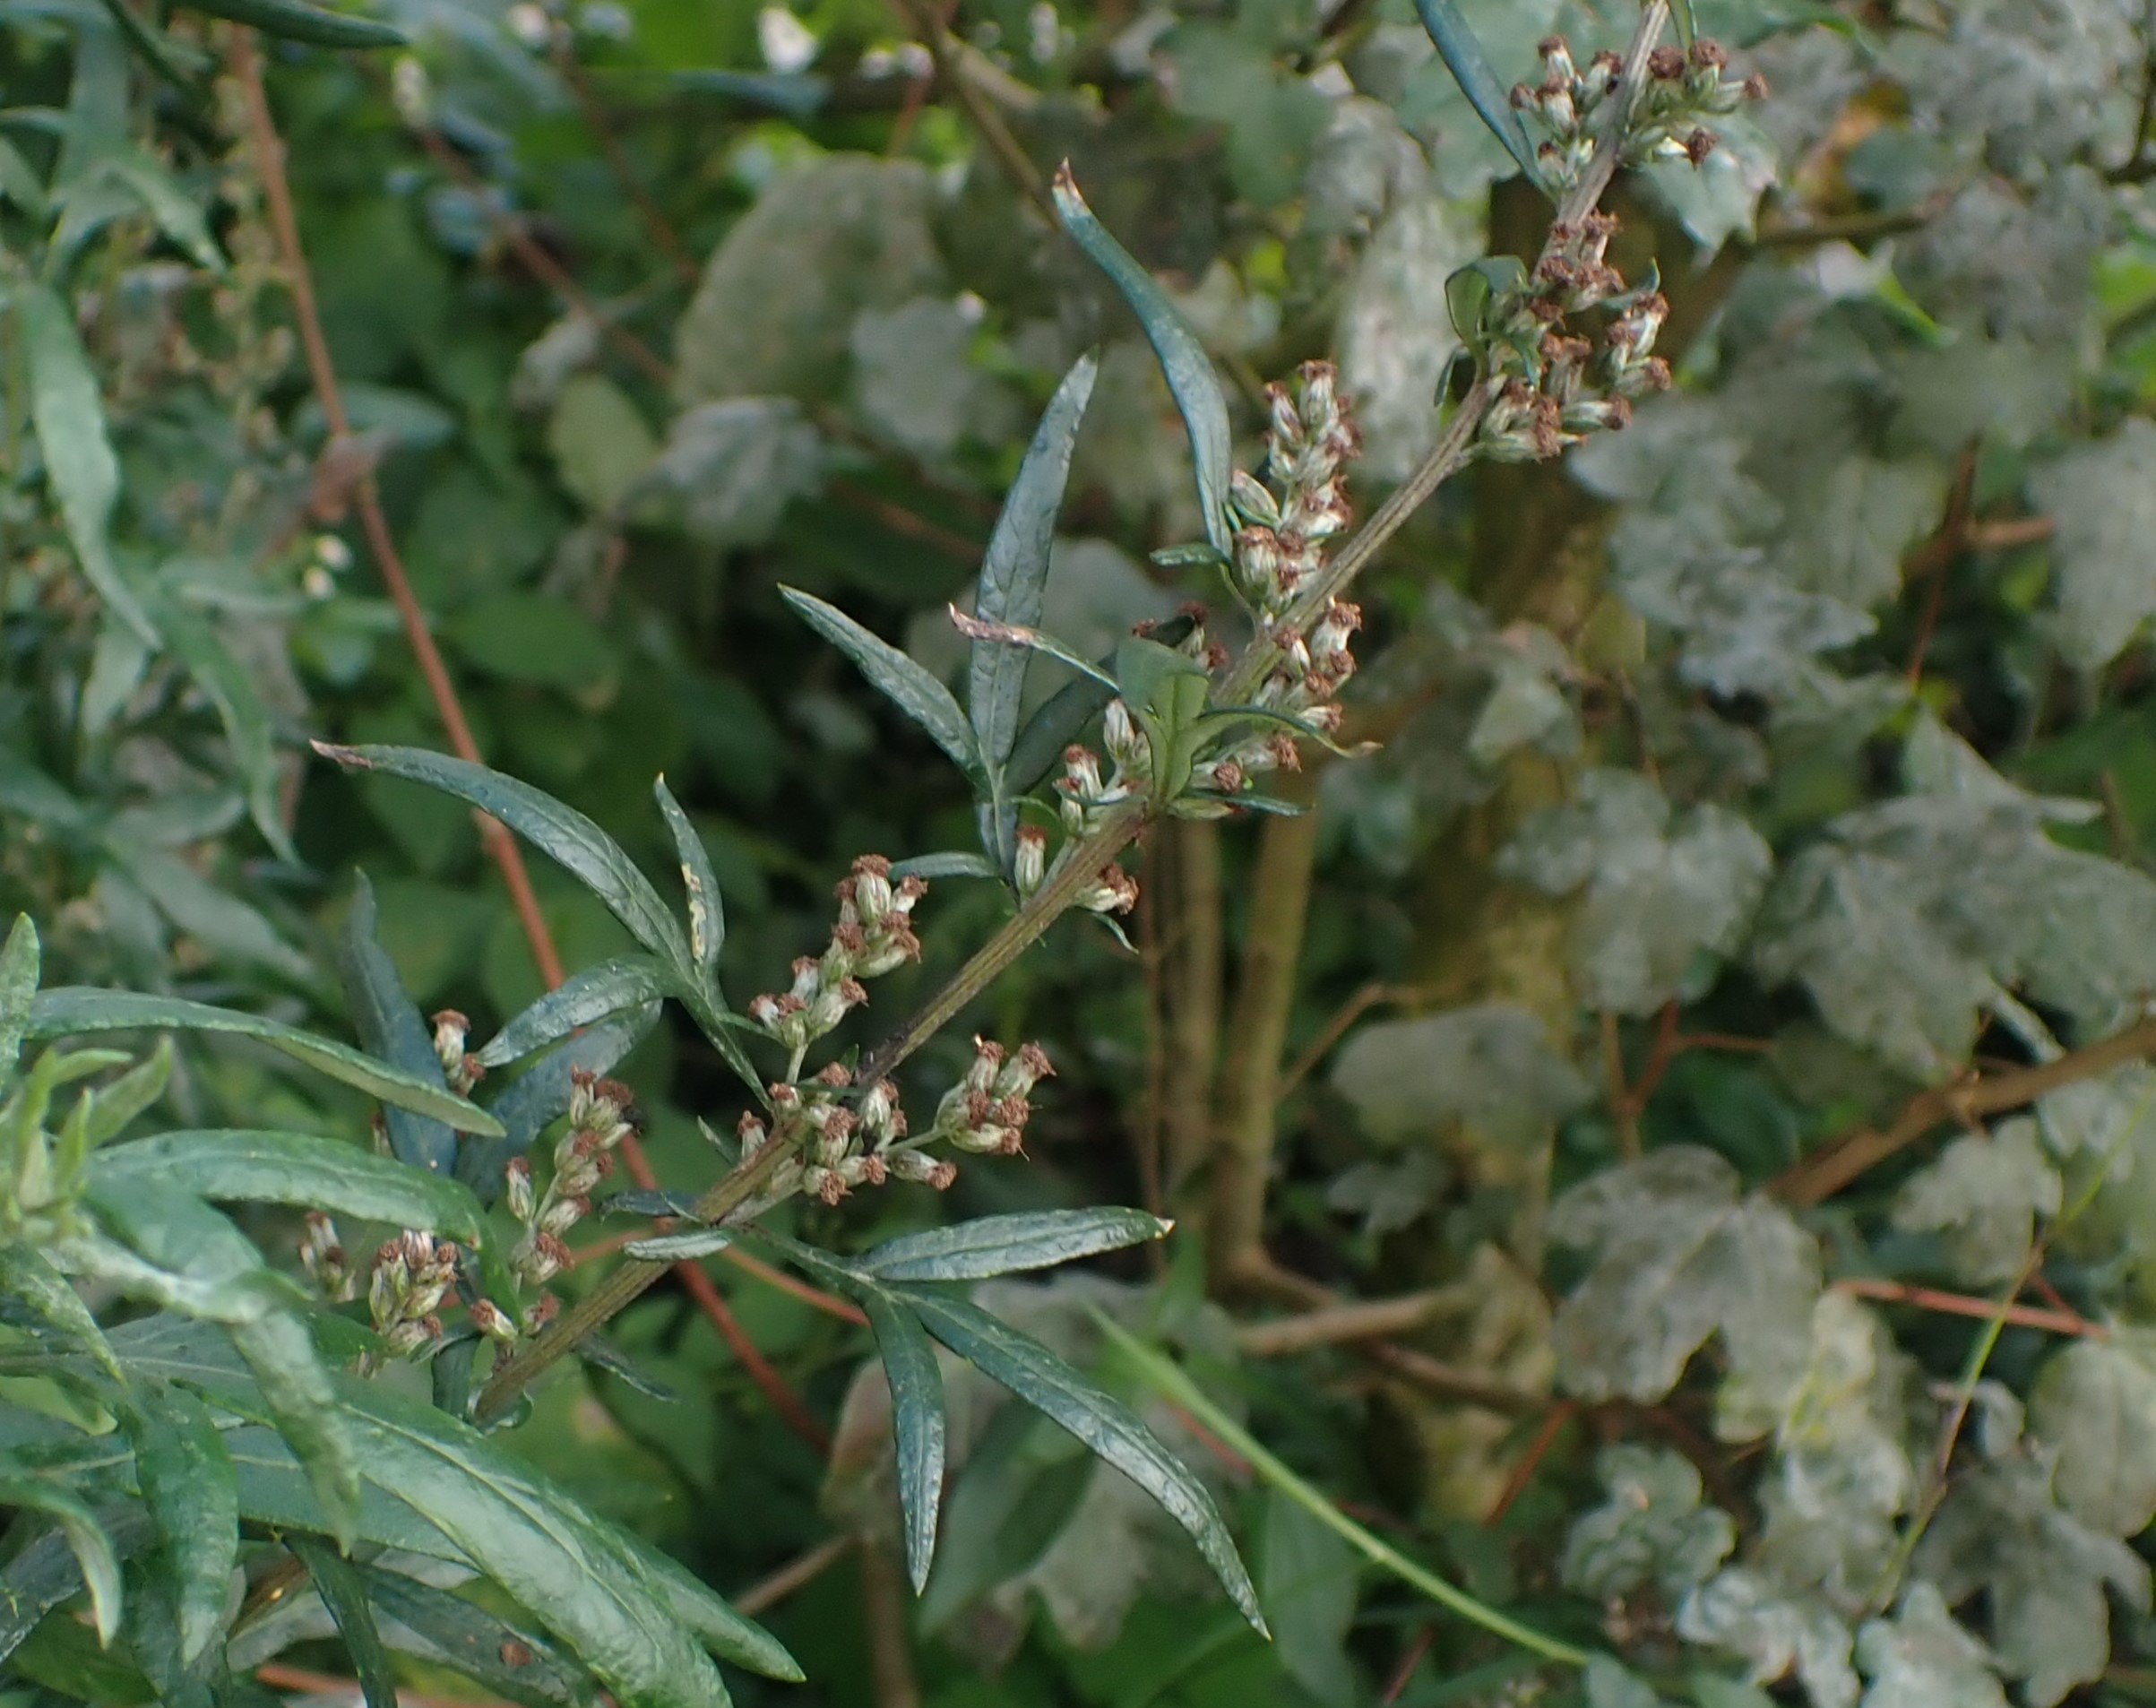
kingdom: Plantae
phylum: Tracheophyta
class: Magnoliopsida
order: Asterales
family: Asteraceae
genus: Artemisia
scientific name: Artemisia vulgaris
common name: Grå-bynke
